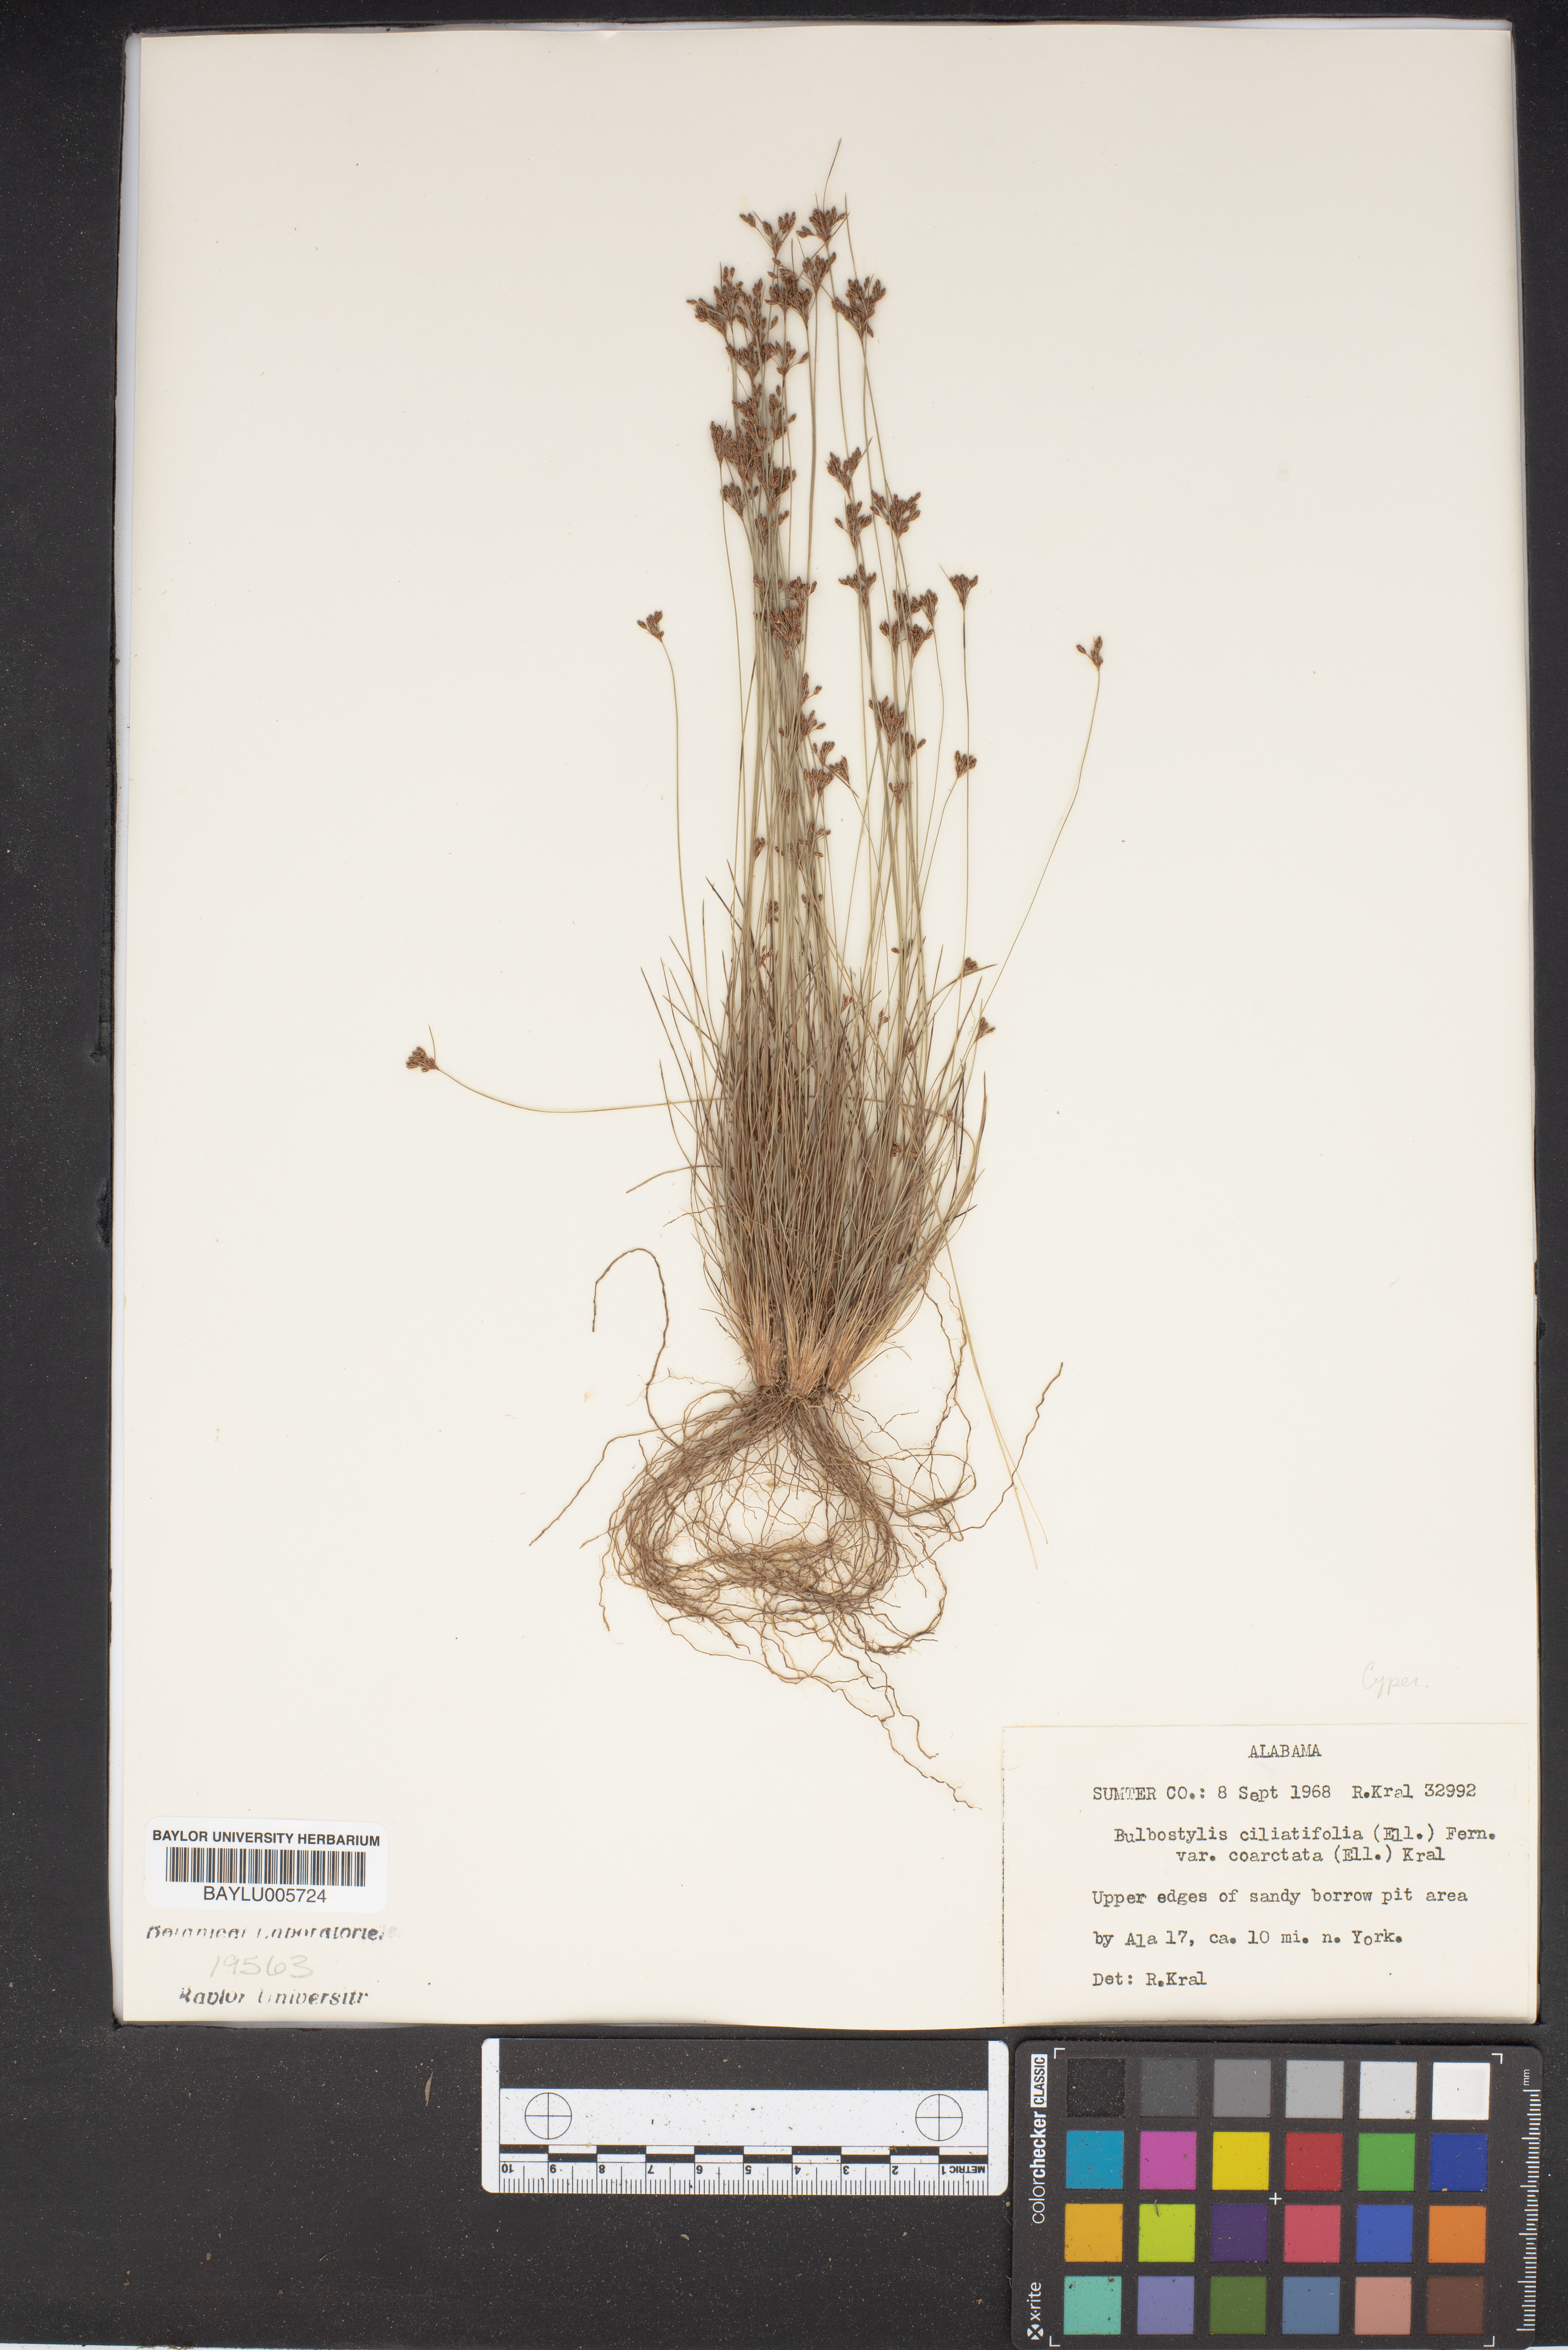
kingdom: Plantae
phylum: Tracheophyta
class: Liliopsida
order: Poales
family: Cyperaceae
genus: Bulbostylis
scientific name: Bulbostylis ciliatifolia
